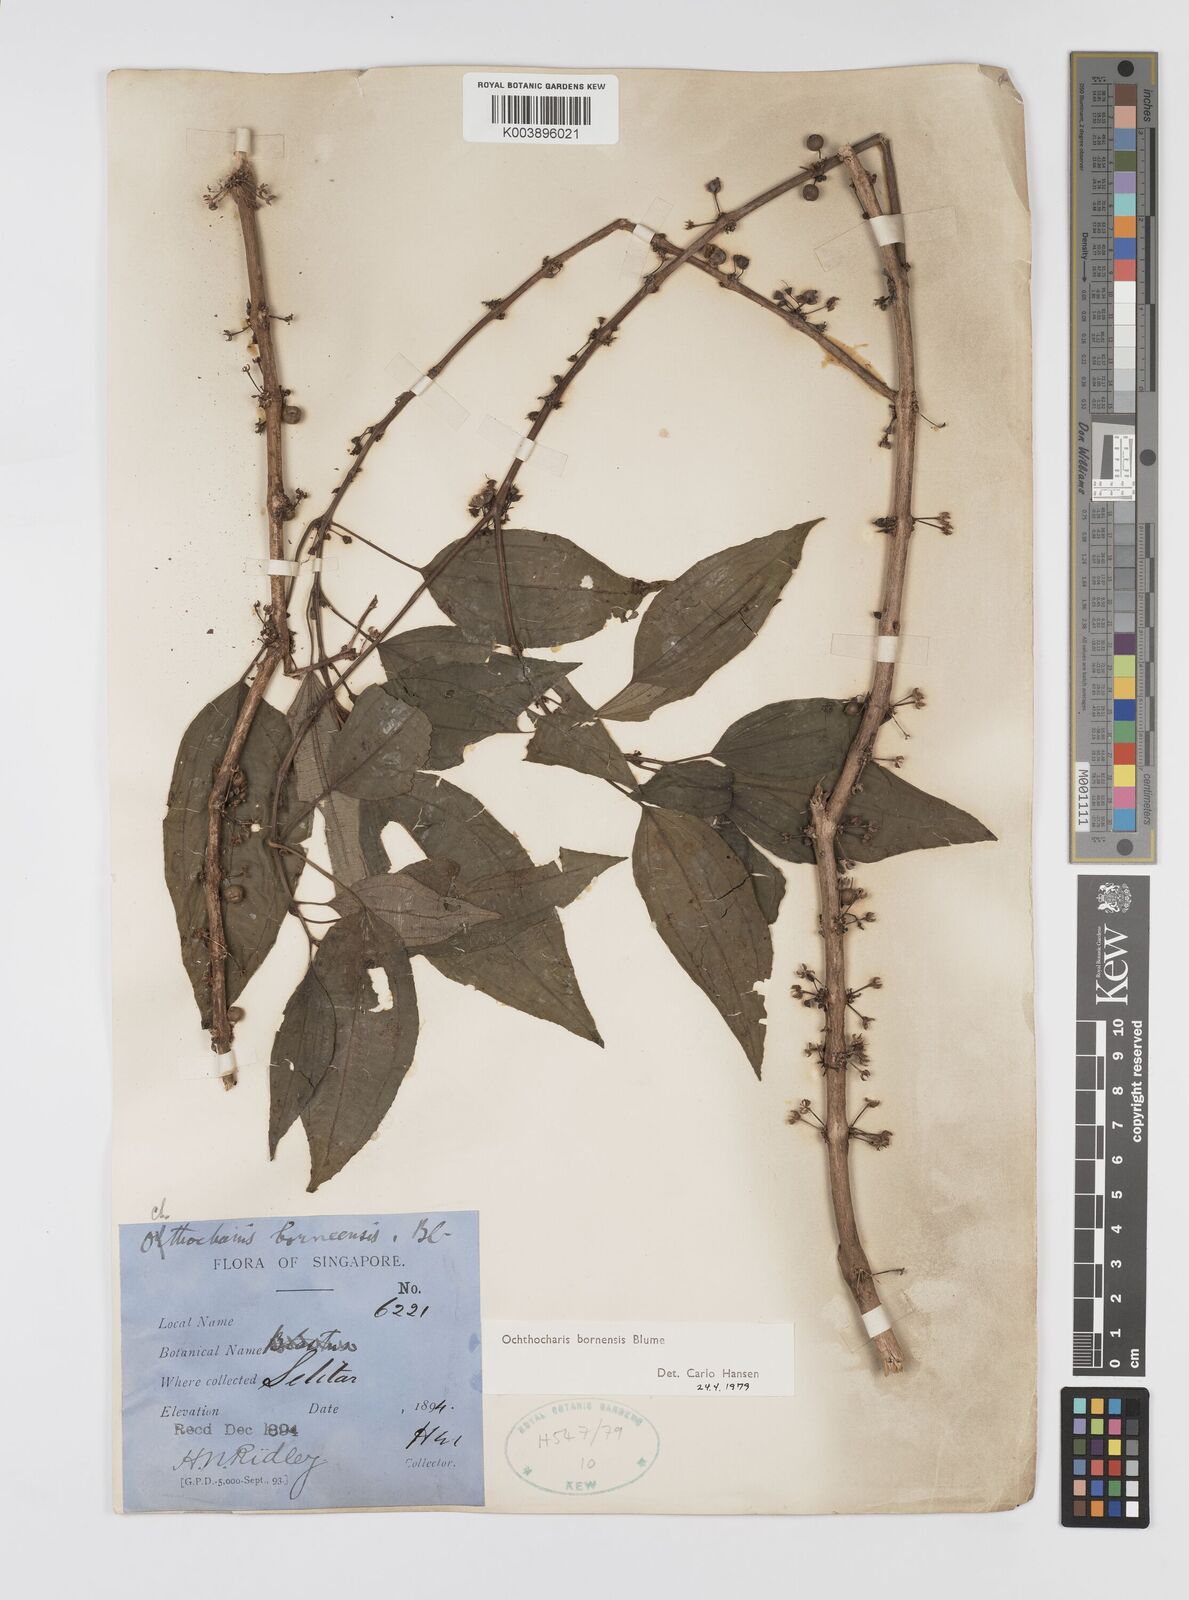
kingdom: Plantae
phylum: Tracheophyta
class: Magnoliopsida
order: Myrtales
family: Melastomataceae
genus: Ochthocharis
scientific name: Ochthocharis bornensis
